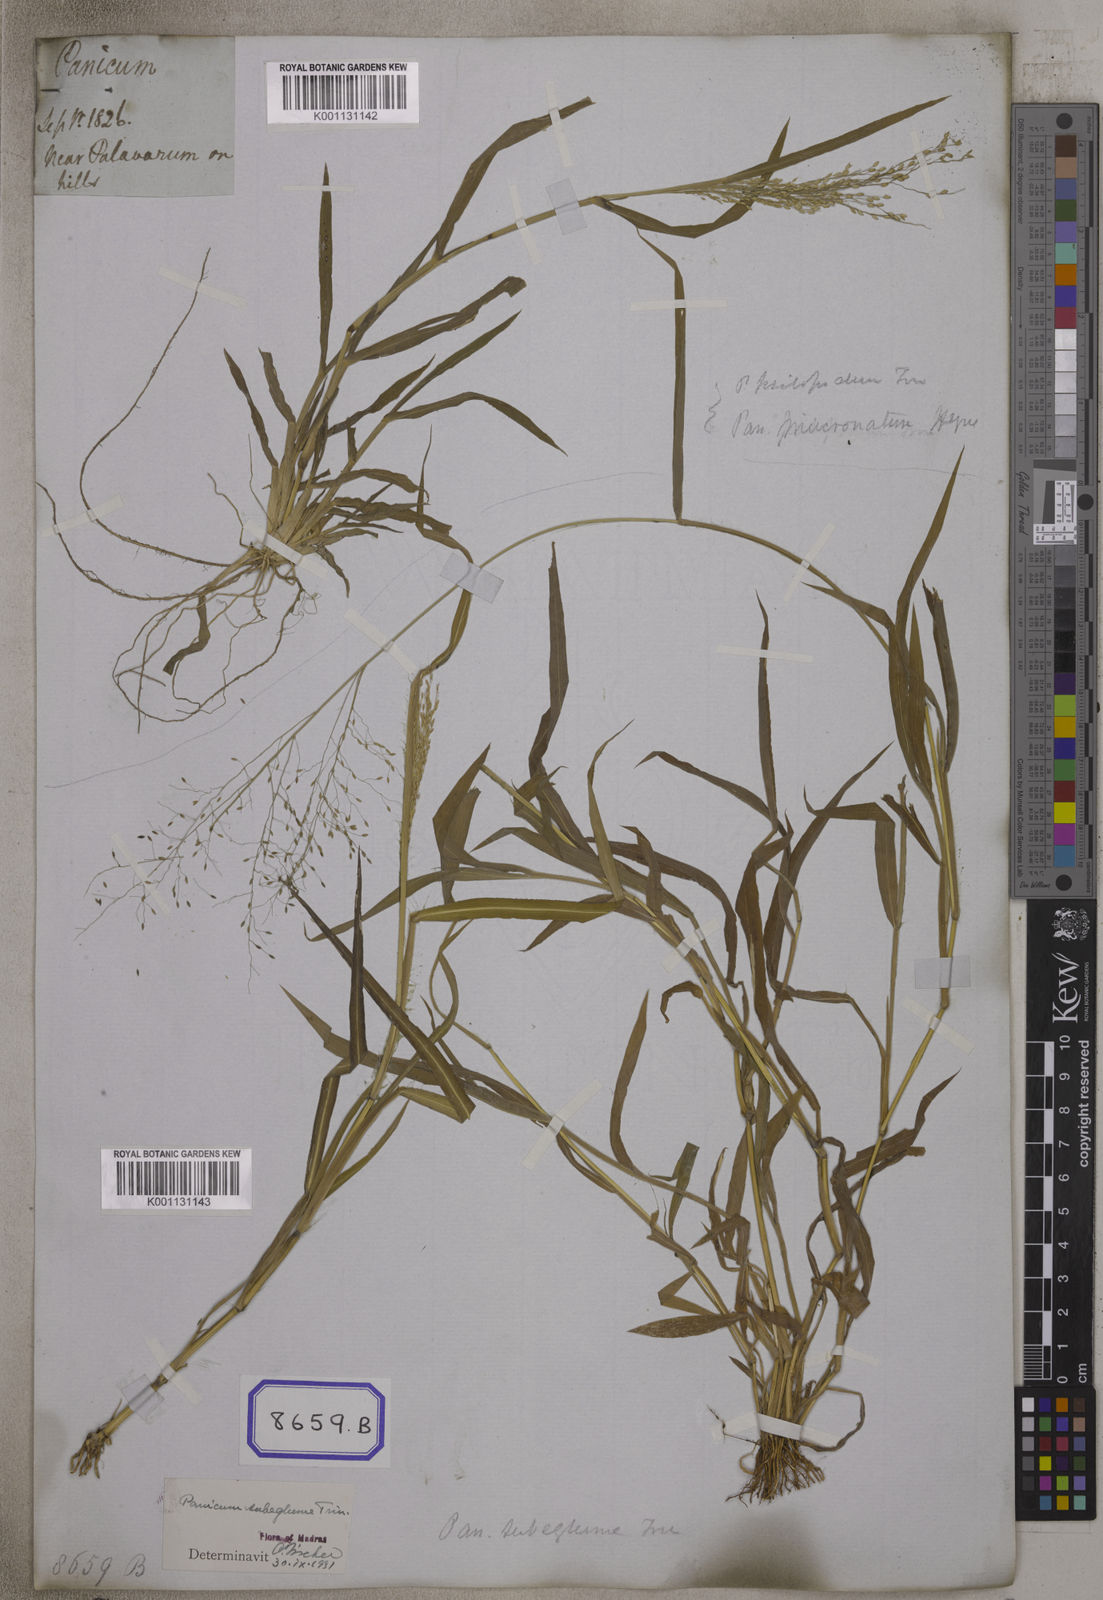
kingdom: Plantae
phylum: Tracheophyta
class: Liliopsida
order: Poales
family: Poaceae
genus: Isachne
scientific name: Isachne
